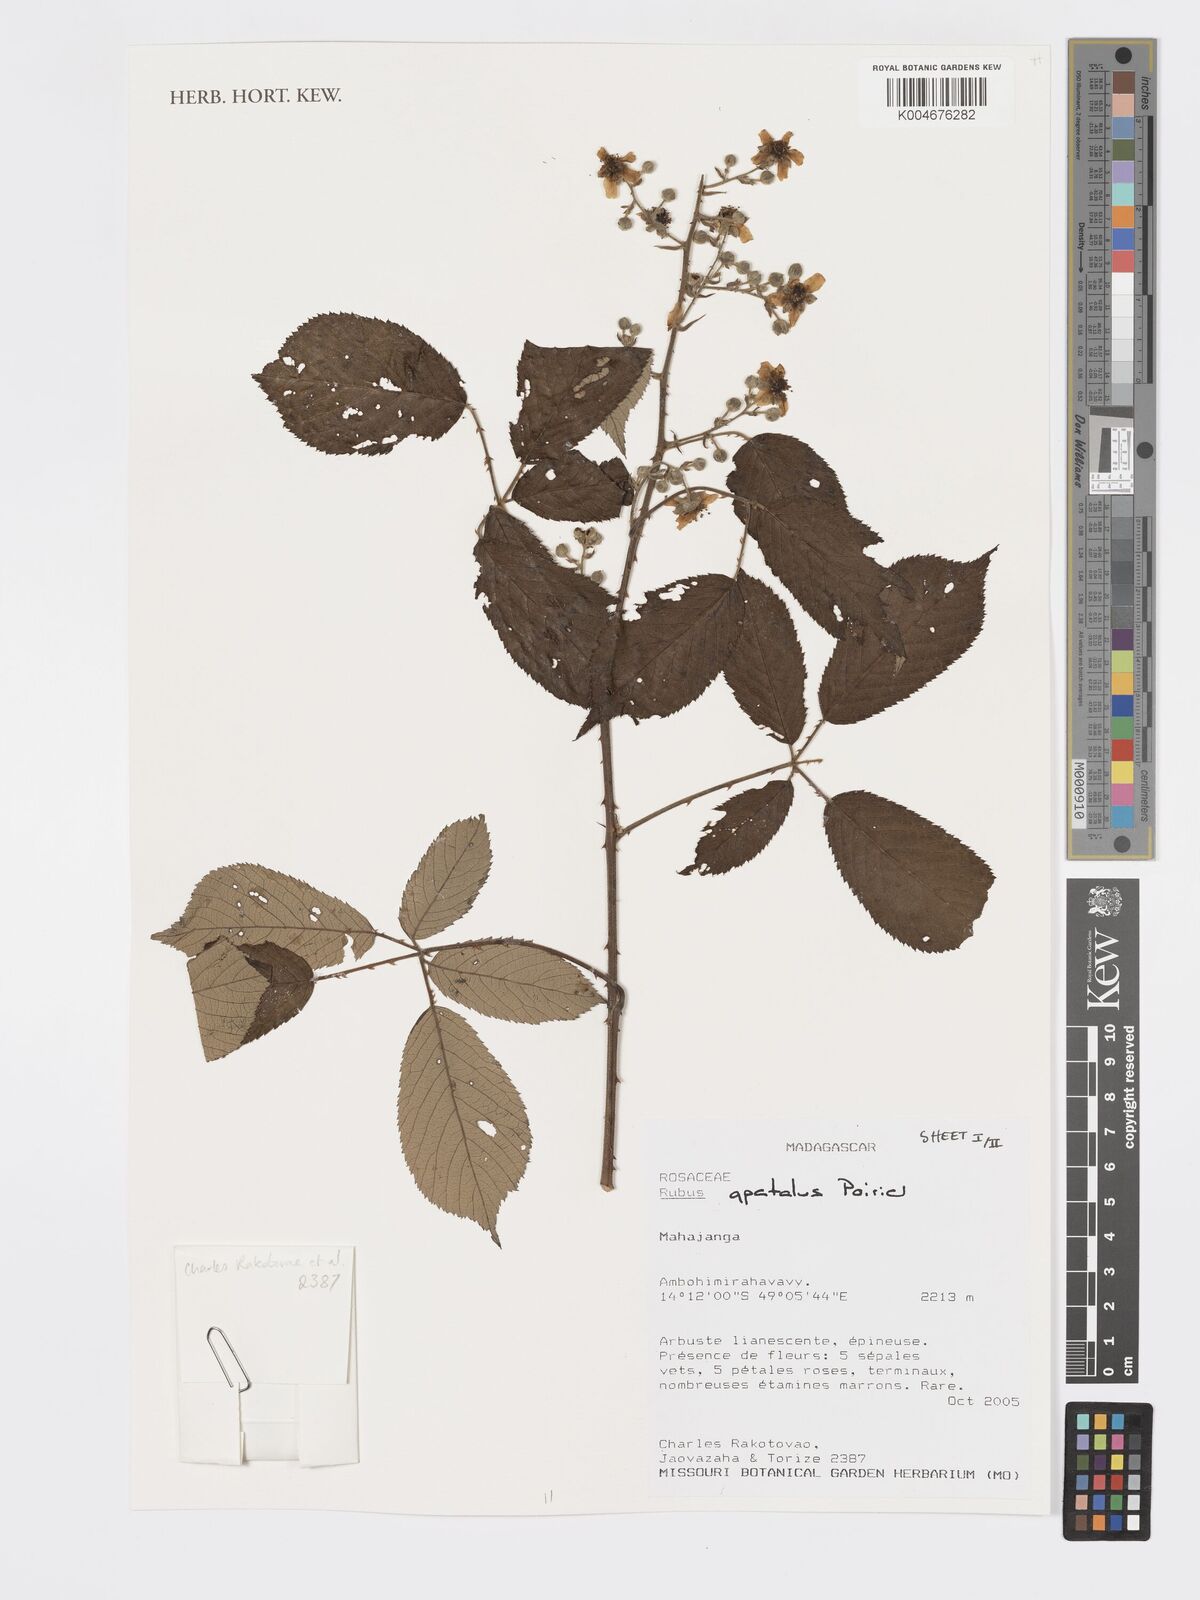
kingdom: Plantae
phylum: Tracheophyta
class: Magnoliopsida
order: Rosales
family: Rosaceae
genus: Rubus
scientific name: Rubus apetalus
